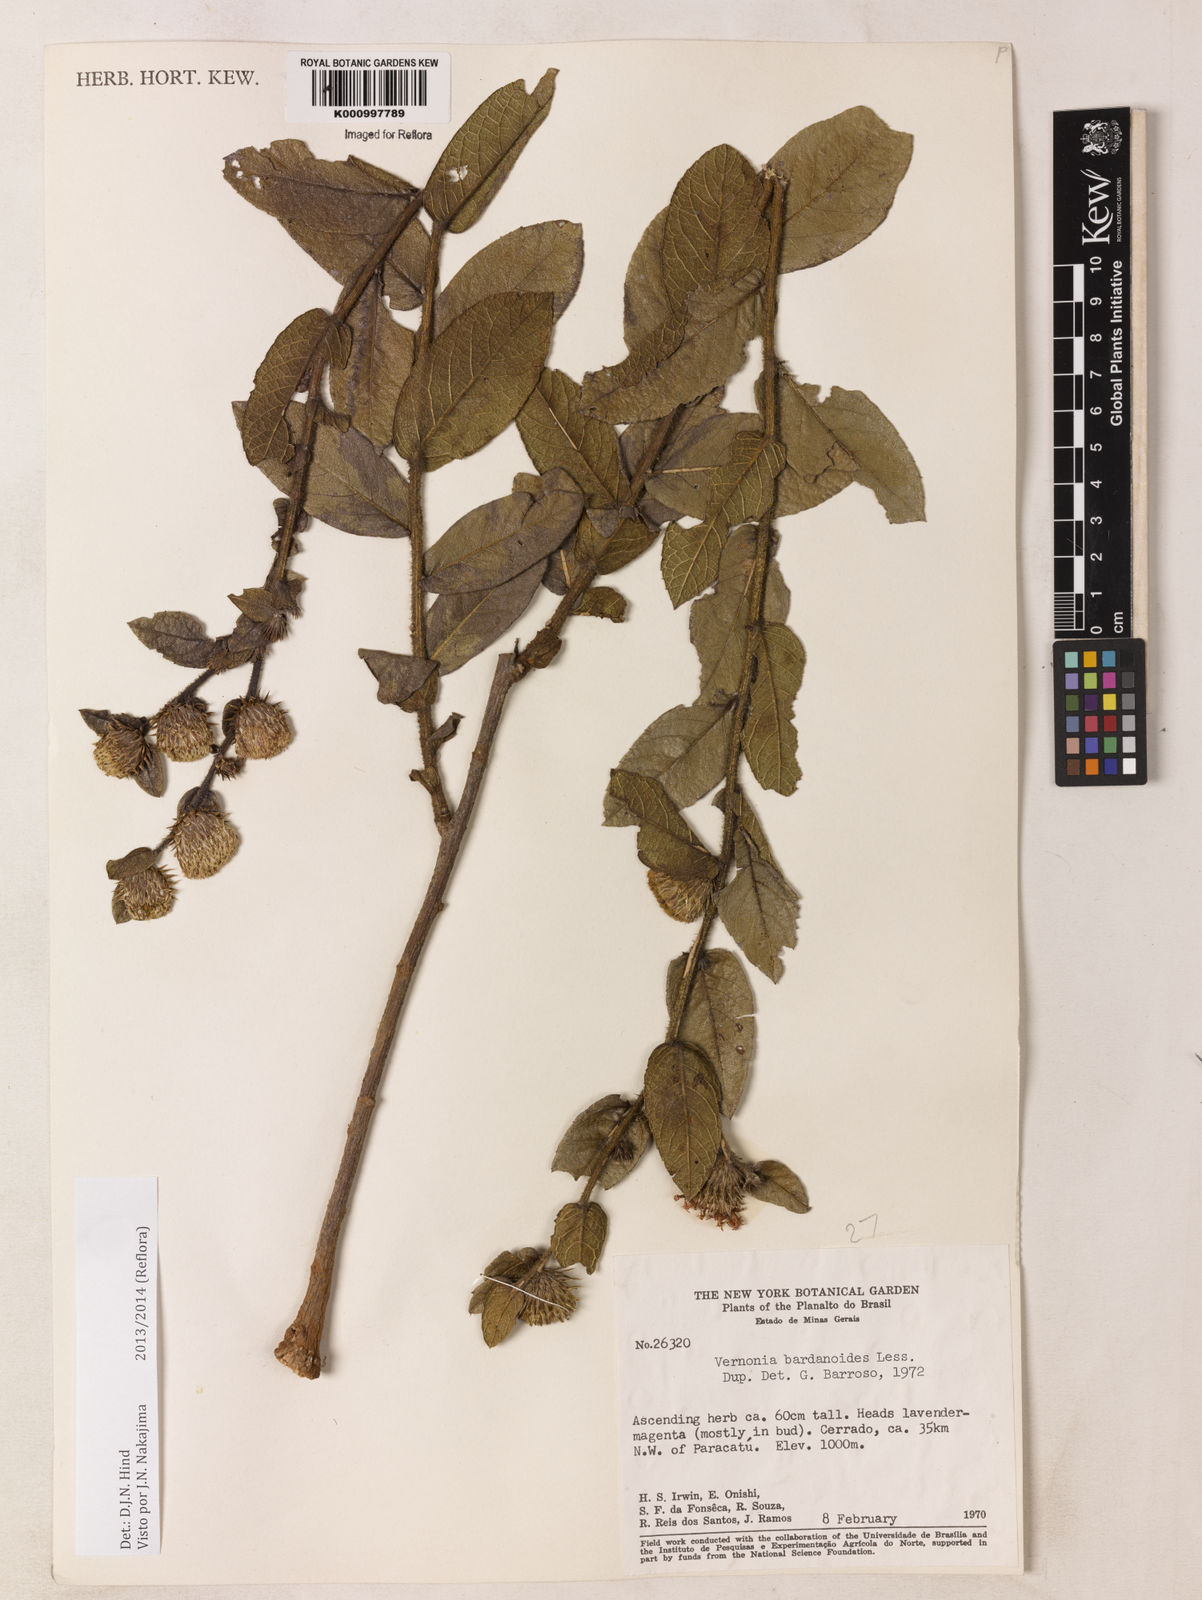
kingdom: Plantae
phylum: Tracheophyta
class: Magnoliopsida
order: Asterales
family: Asteraceae
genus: Lessingianthus
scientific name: Lessingianthus bardanioides
